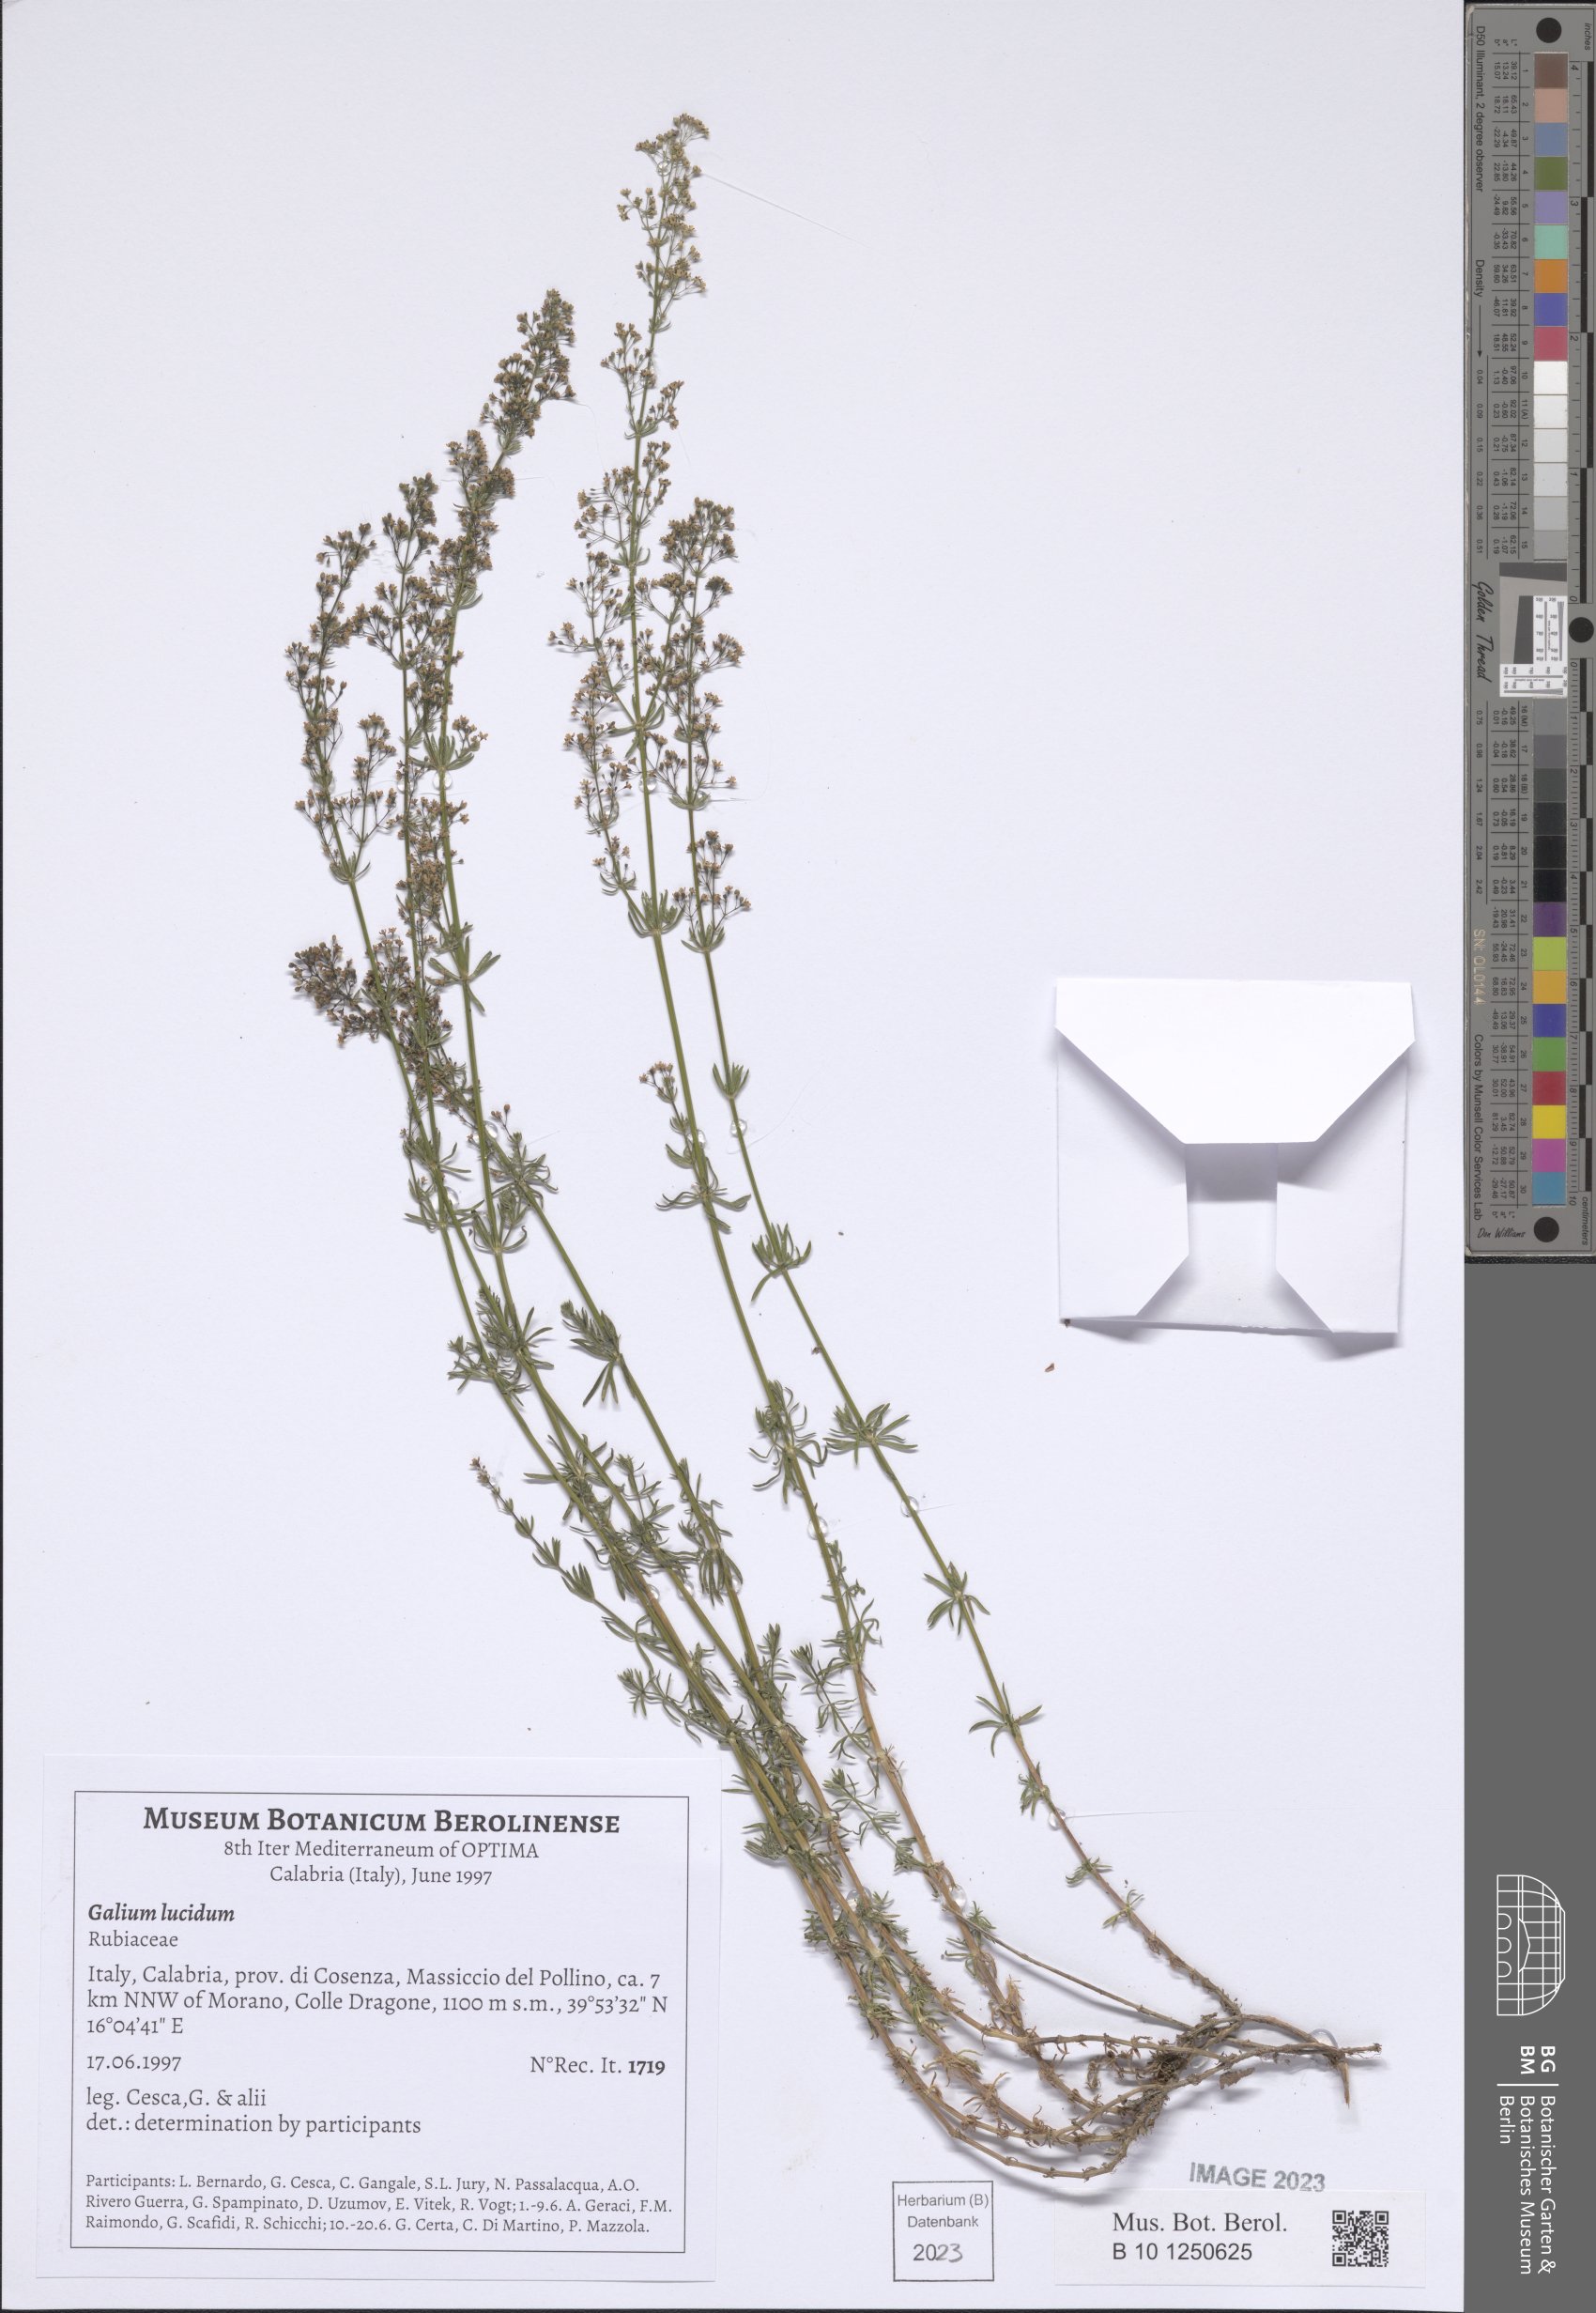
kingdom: Plantae
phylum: Tracheophyta
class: Magnoliopsida
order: Gentianales
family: Rubiaceae
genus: Galium
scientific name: Galium lucidum
